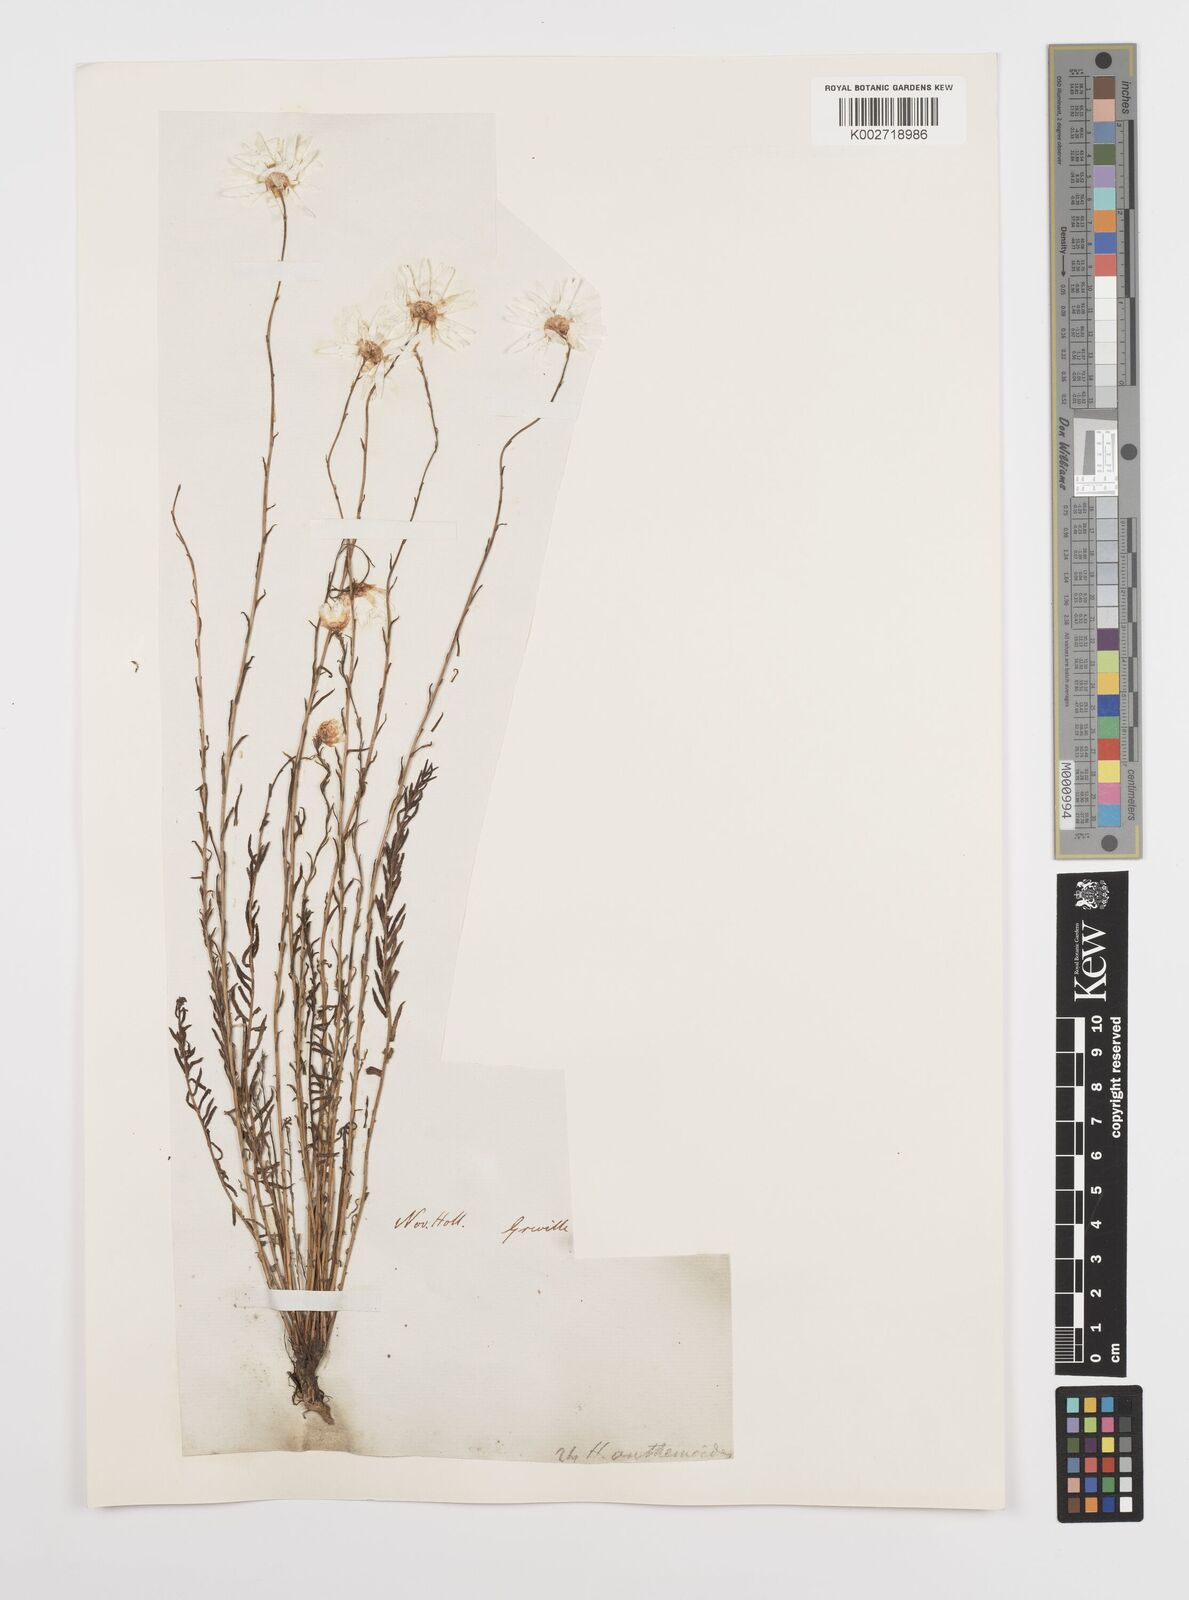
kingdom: Plantae
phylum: Tracheophyta
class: Magnoliopsida
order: Asterales
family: Asteraceae
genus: Rhodanthe
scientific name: Rhodanthe anthemoides
